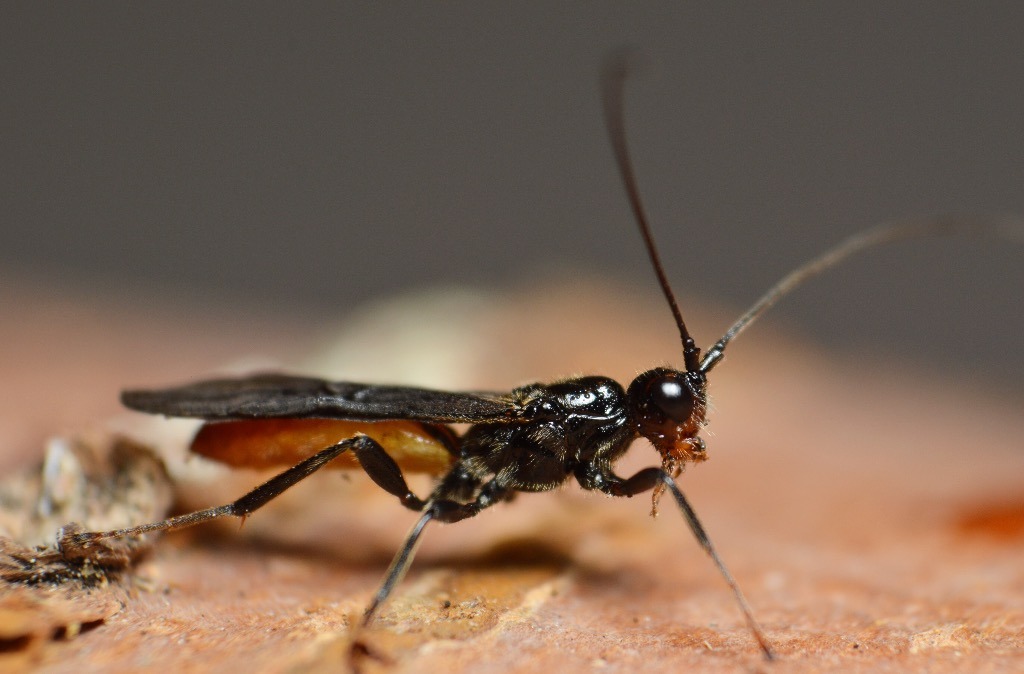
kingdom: Animalia
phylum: Arthropoda
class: Insecta
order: Hymenoptera
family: Braconidae
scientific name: Braconidae
